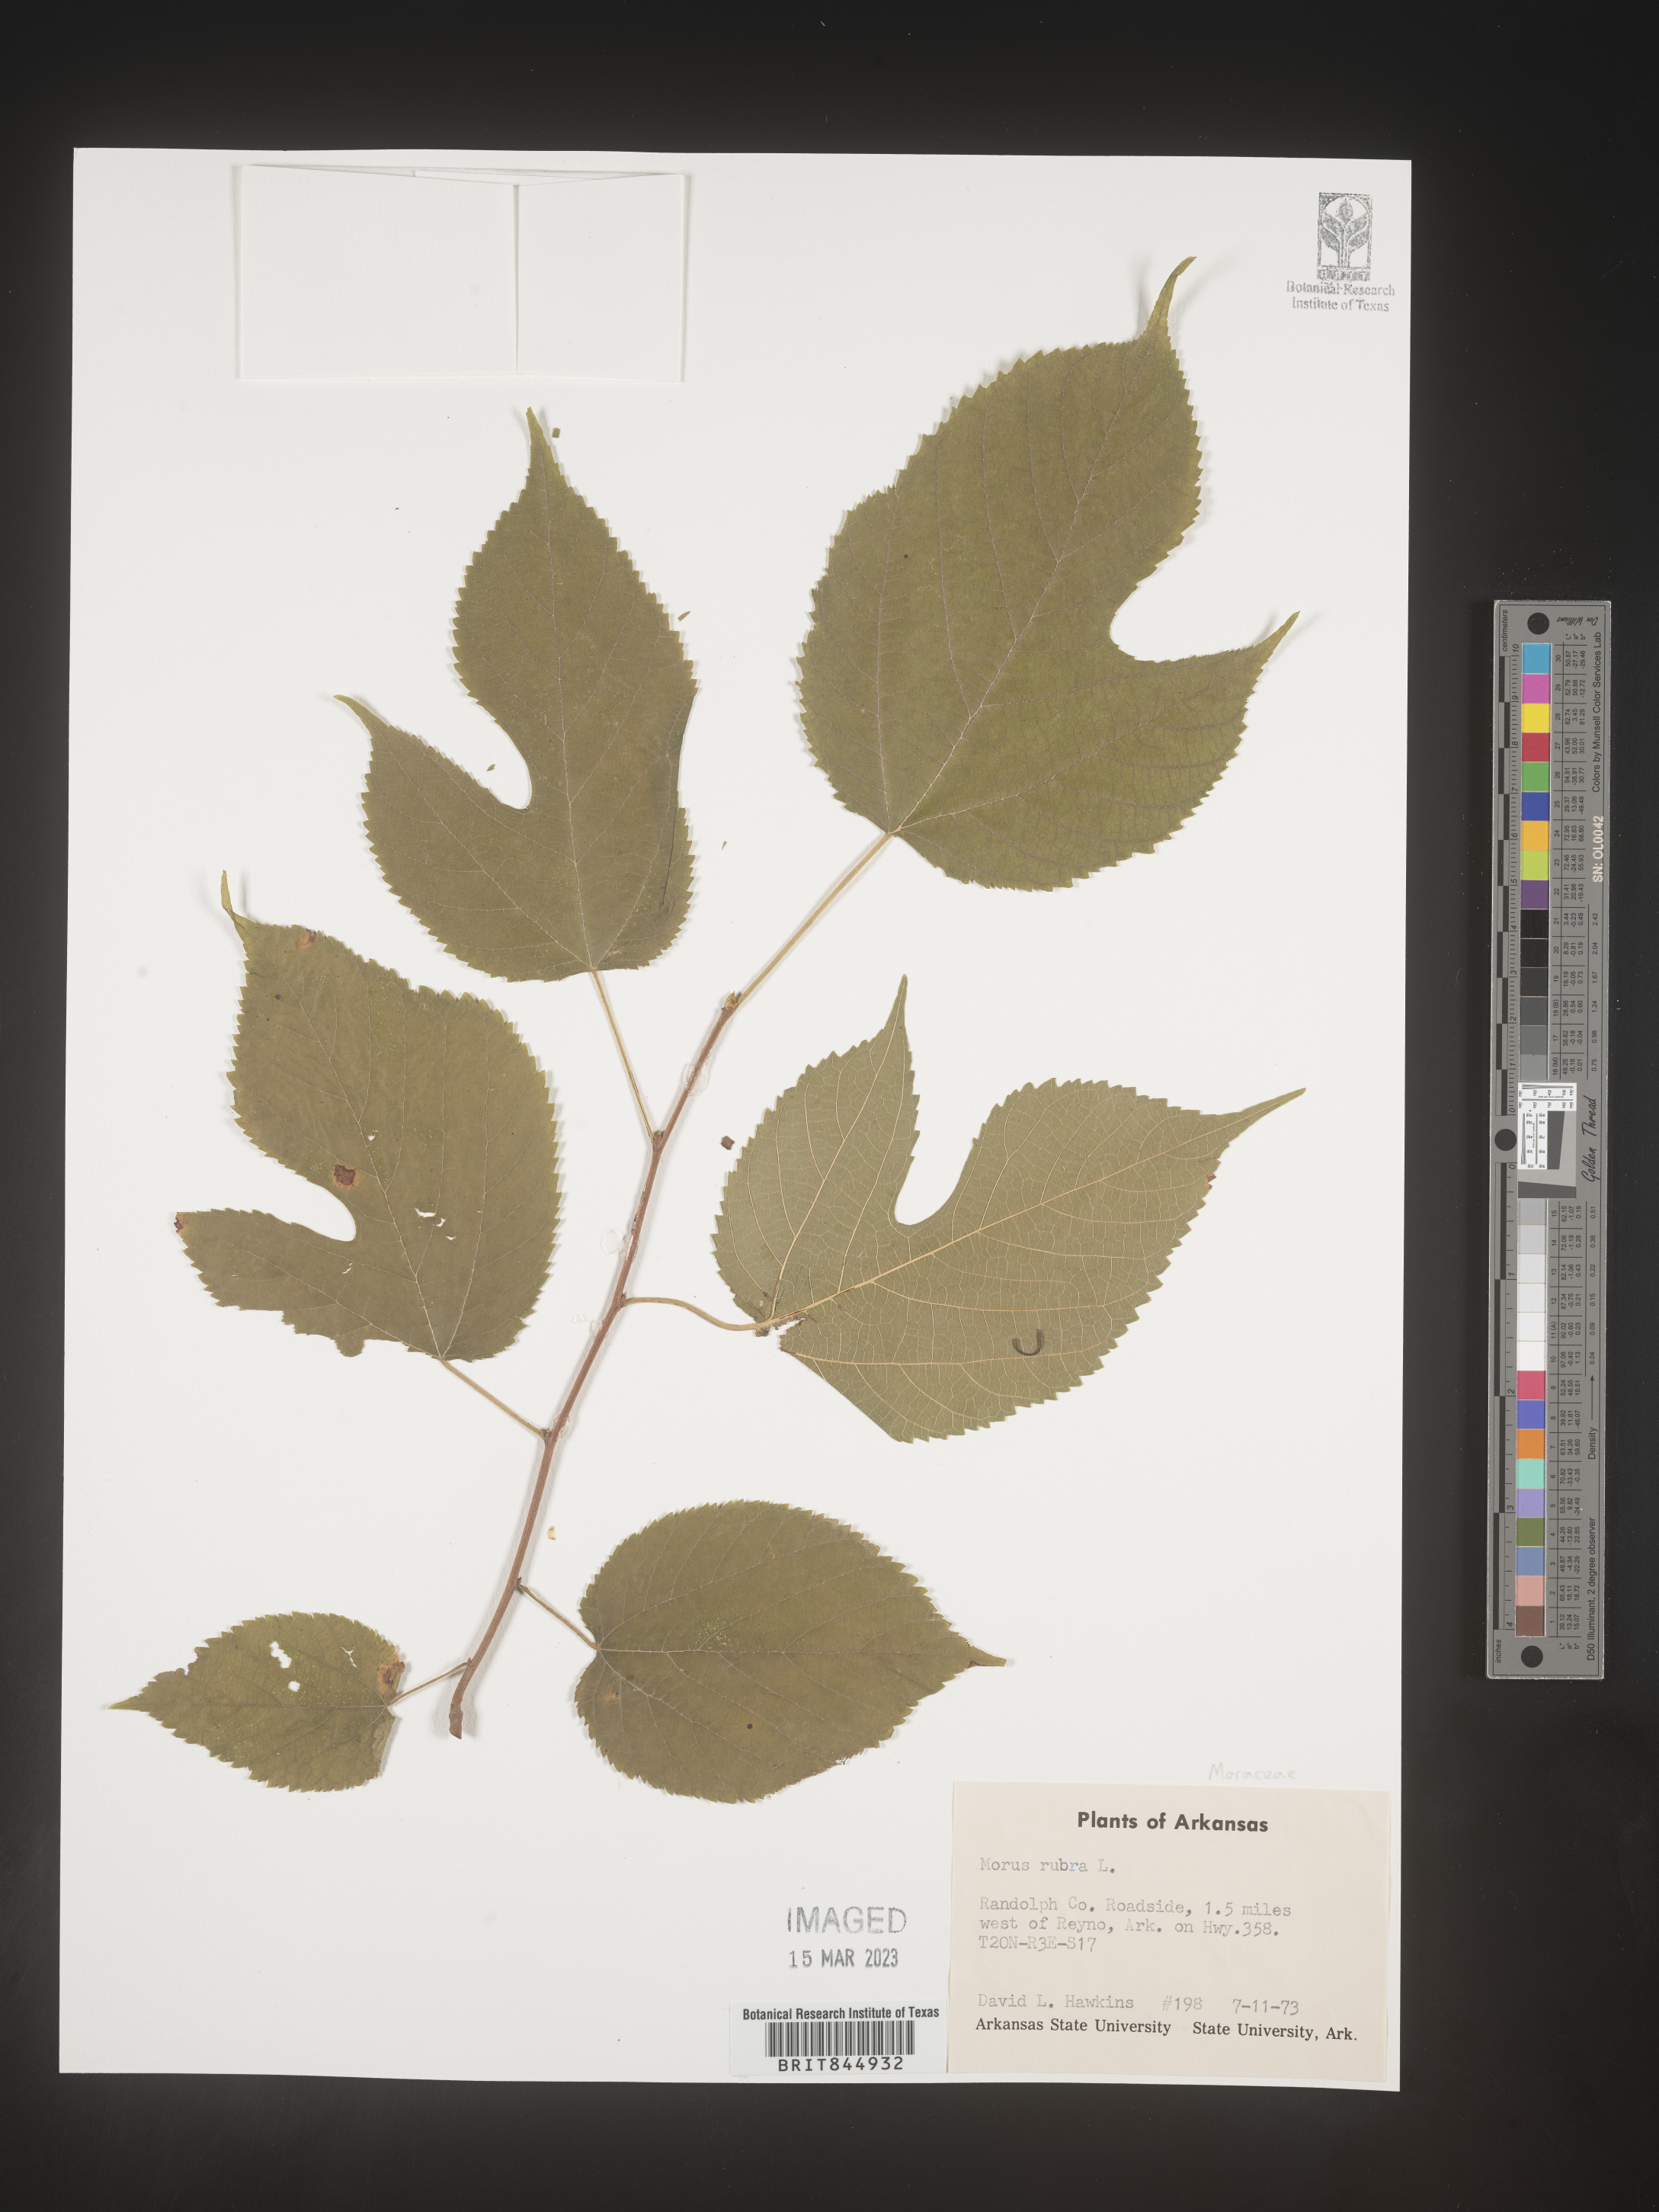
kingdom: Plantae
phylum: Tracheophyta
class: Magnoliopsida
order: Rosales
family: Moraceae
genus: Morus
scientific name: Morus rubra
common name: Red mulberry
